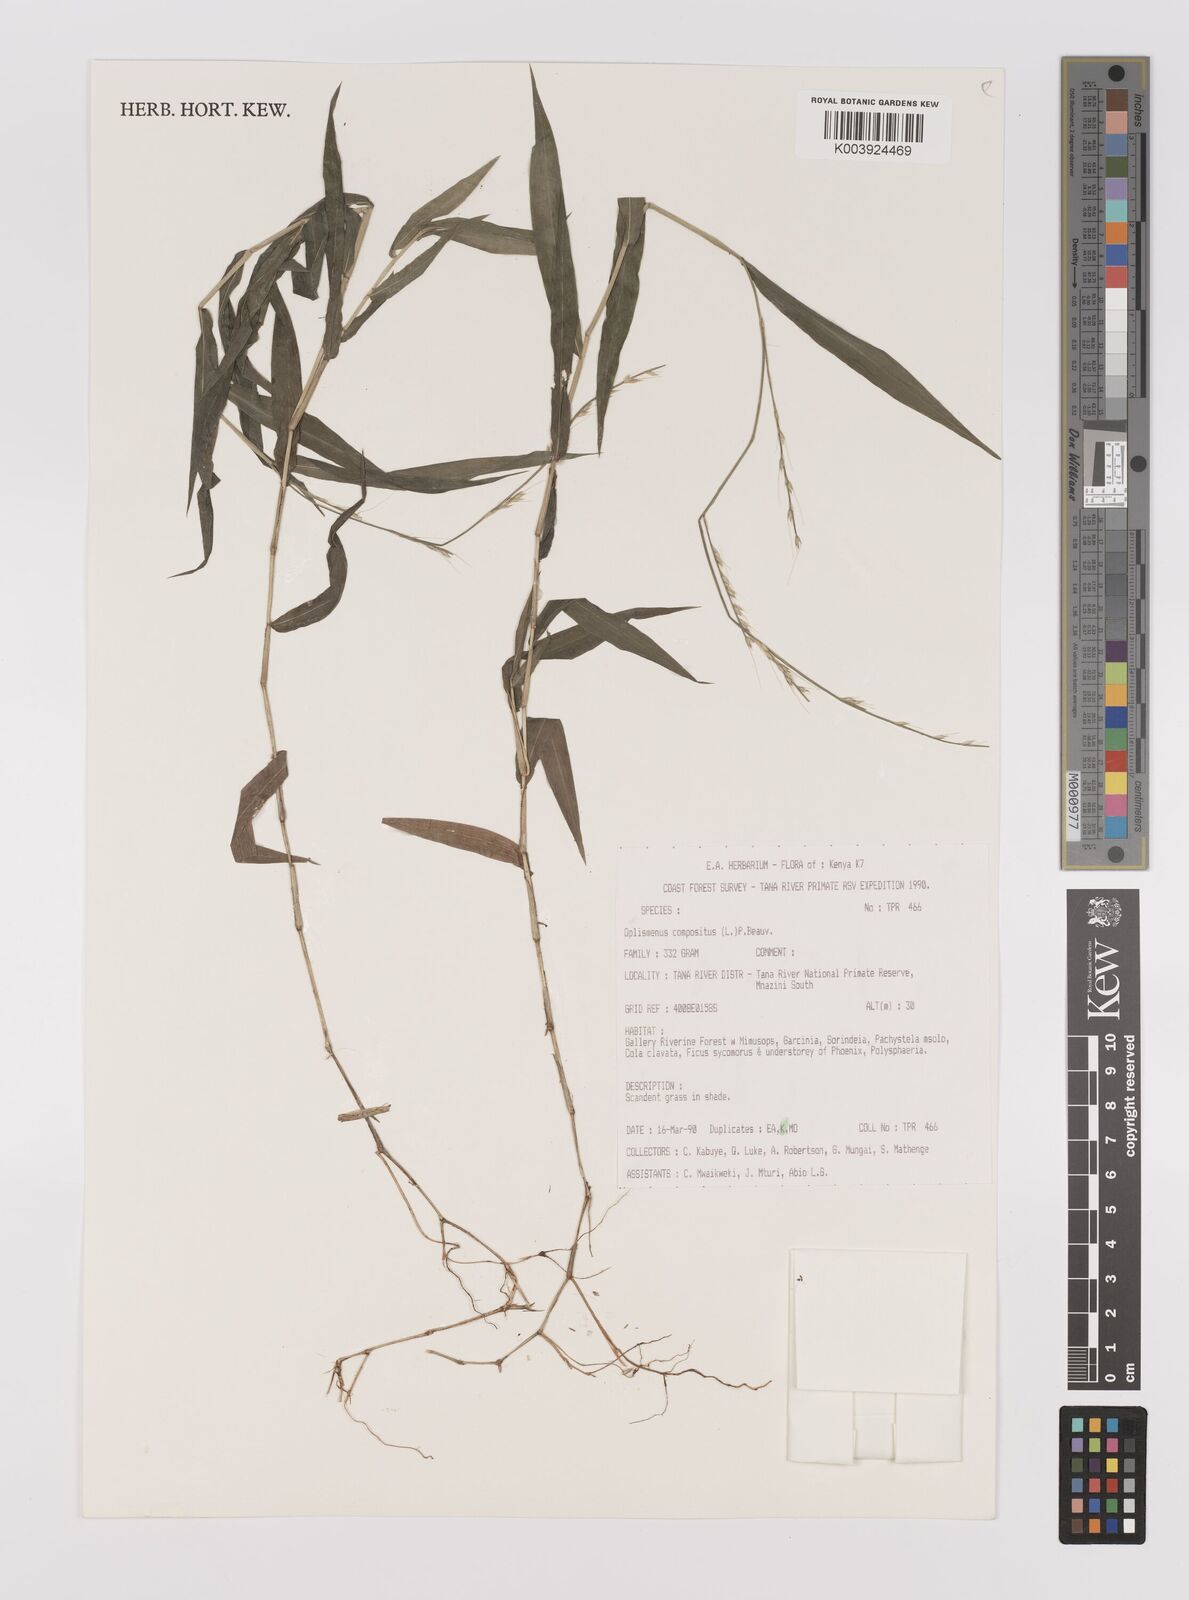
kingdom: Plantae
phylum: Tracheophyta
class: Liliopsida
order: Poales
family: Poaceae
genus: Oplismenus
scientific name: Oplismenus compositus
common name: Running mountain grass
